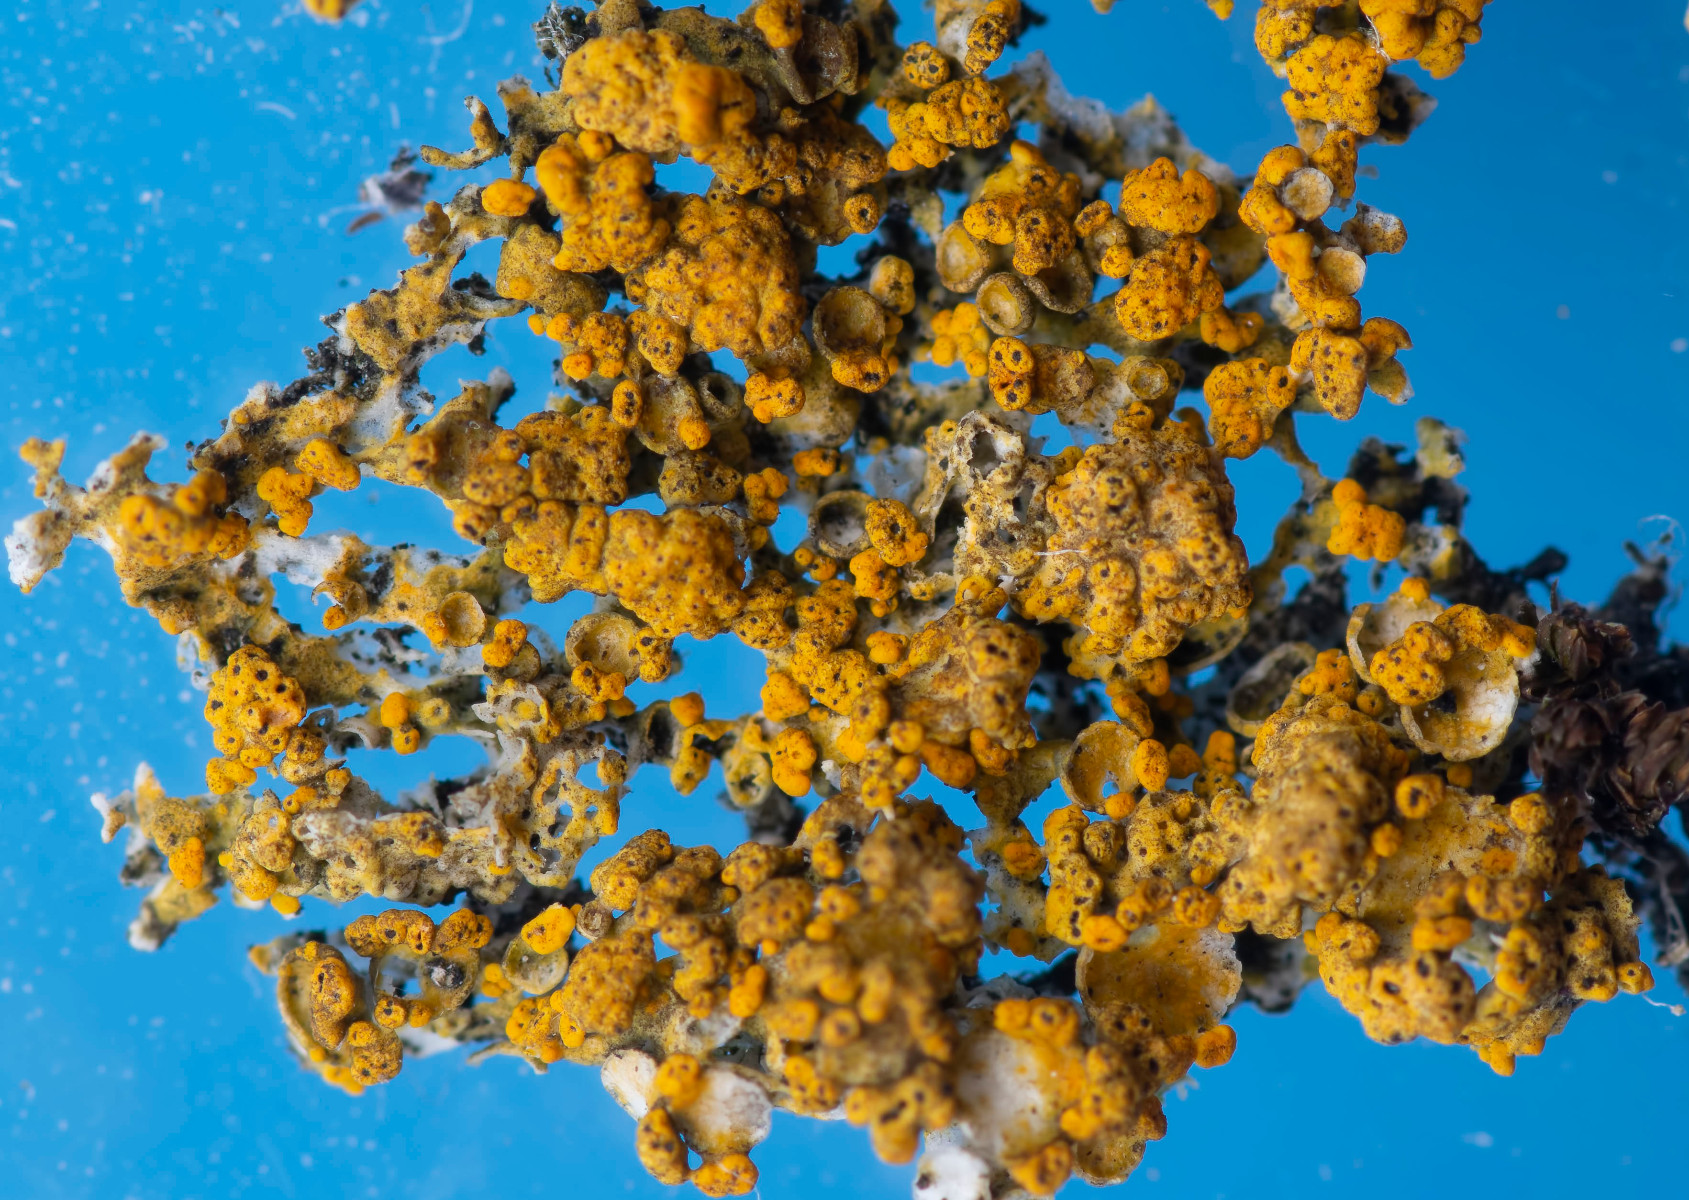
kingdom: Fungi
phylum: Ascomycota
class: Eurotiomycetes
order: Verrucariales
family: Verrucariaceae
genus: Telogalla
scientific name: Telogalla olivieri
